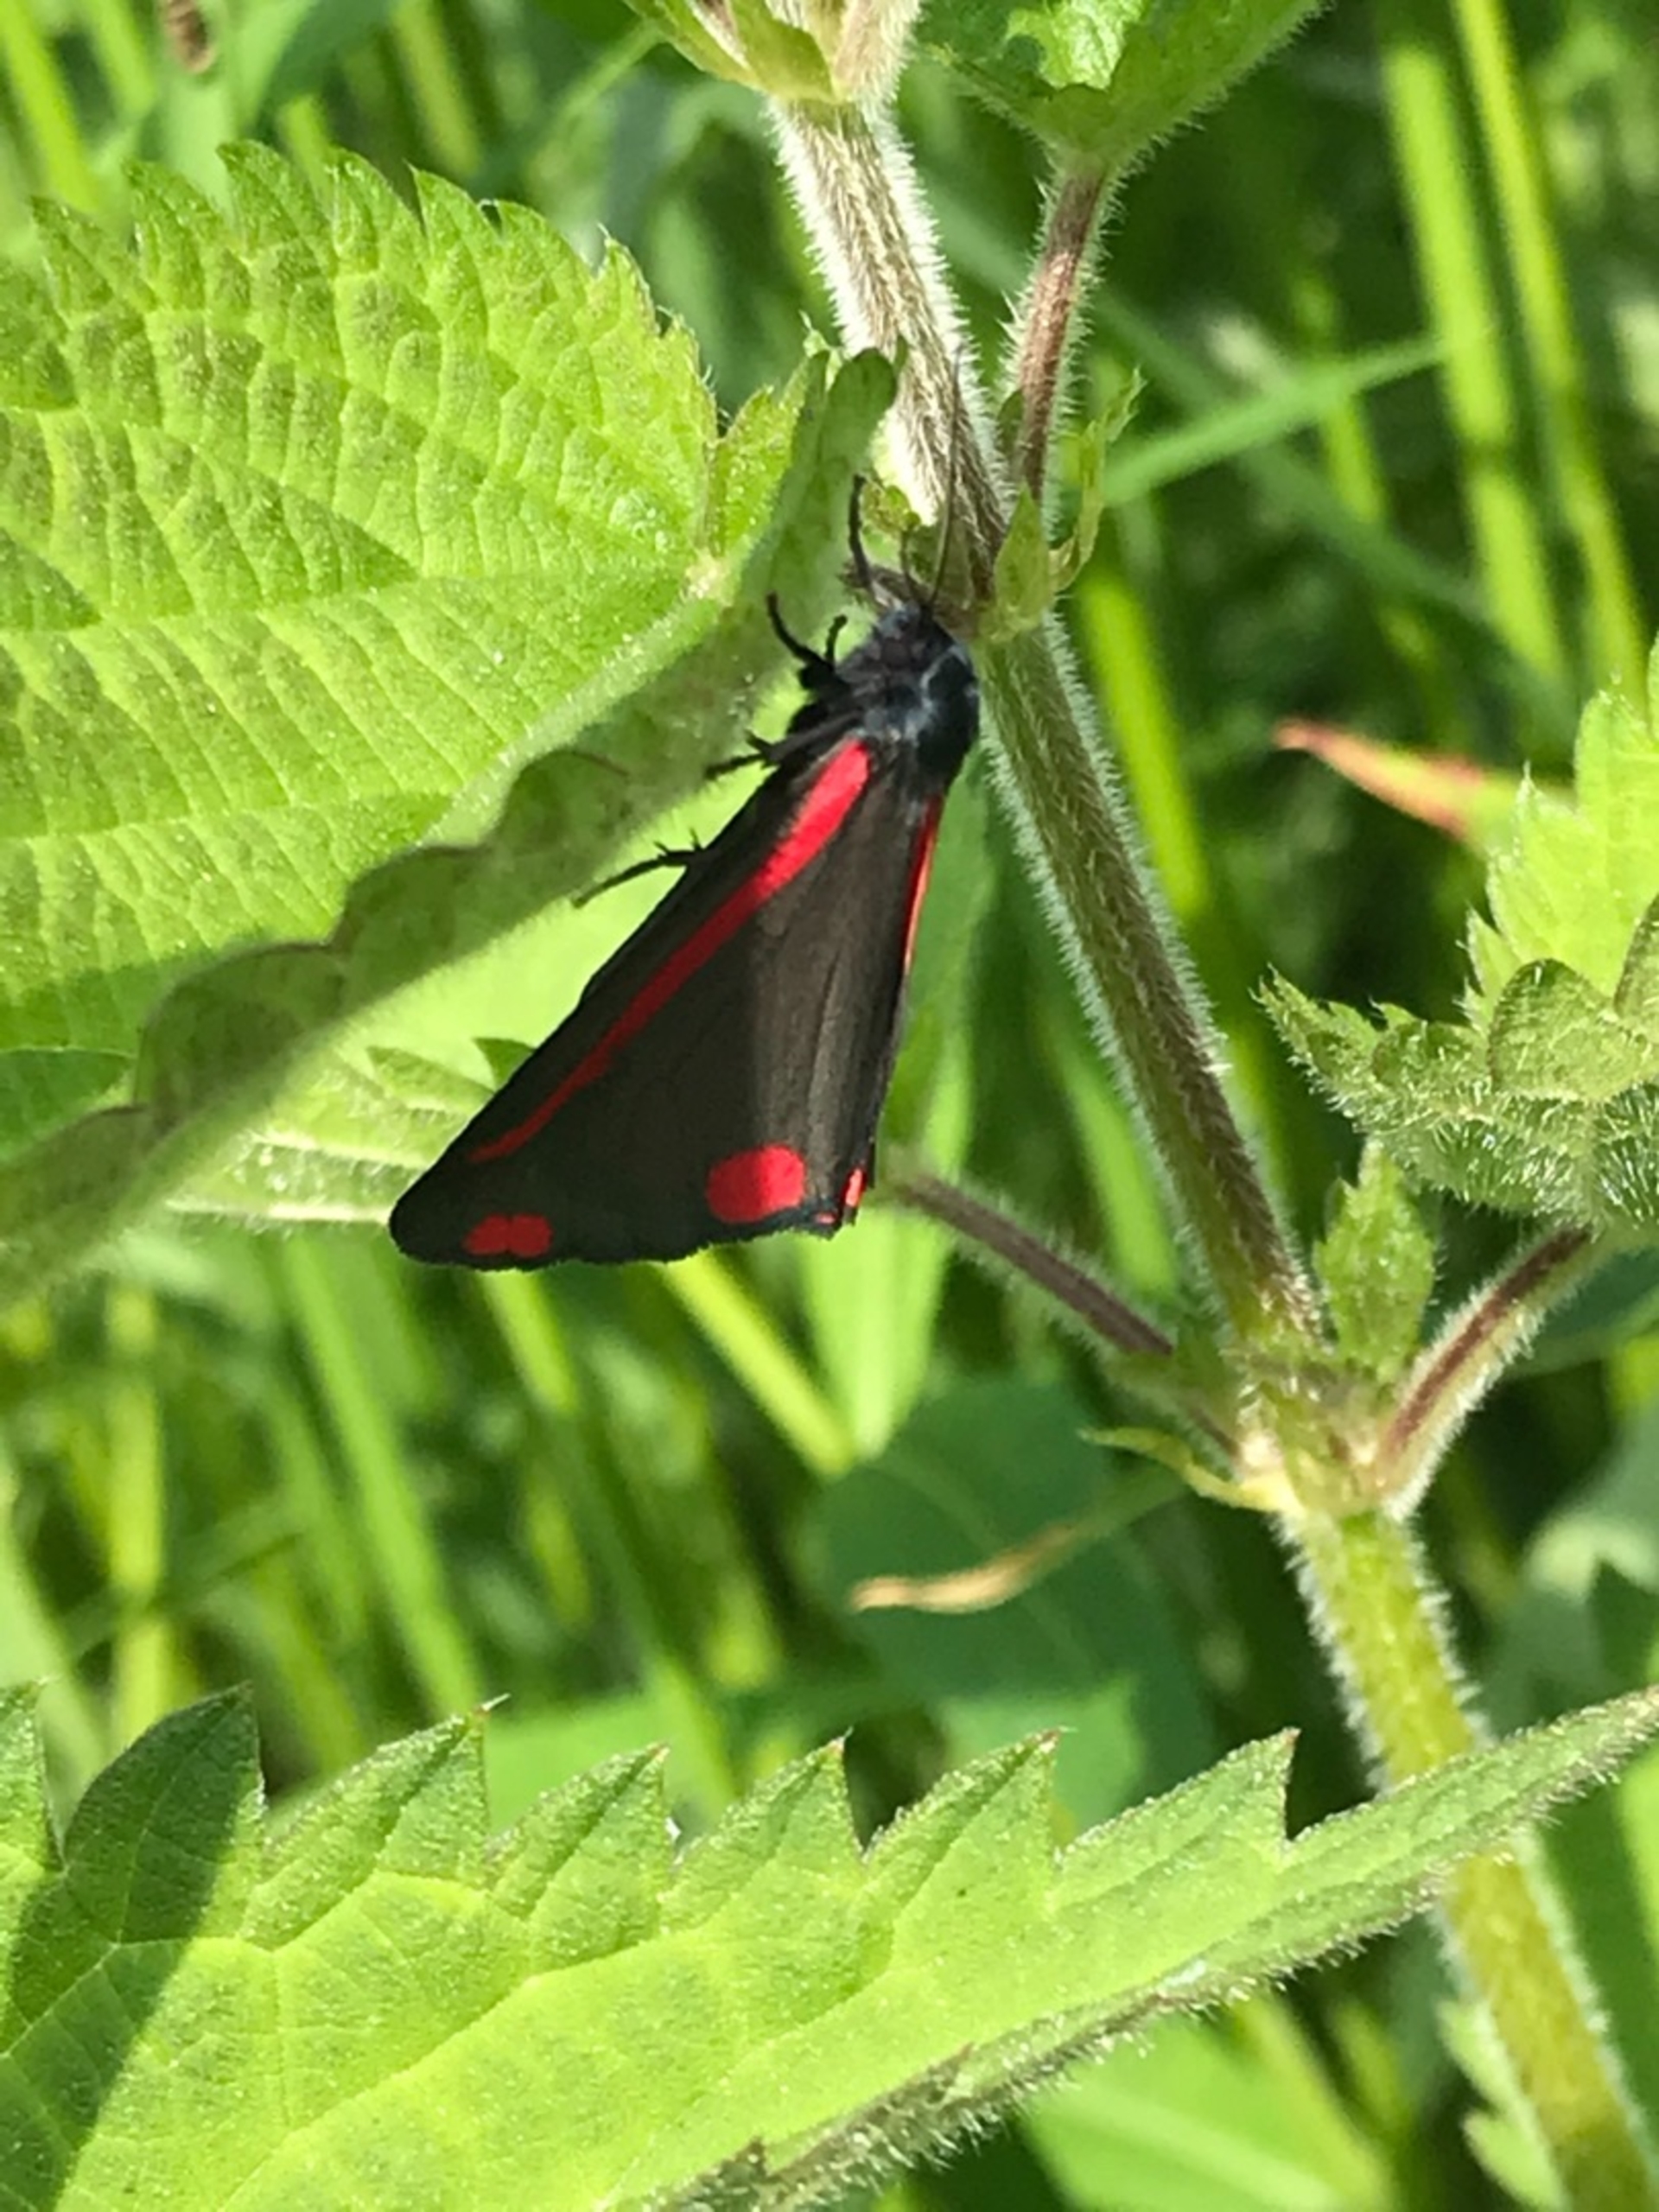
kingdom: Animalia
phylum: Arthropoda
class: Insecta
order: Lepidoptera
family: Erebidae
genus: Tyria
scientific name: Tyria jacobaeae
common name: Blodplet
